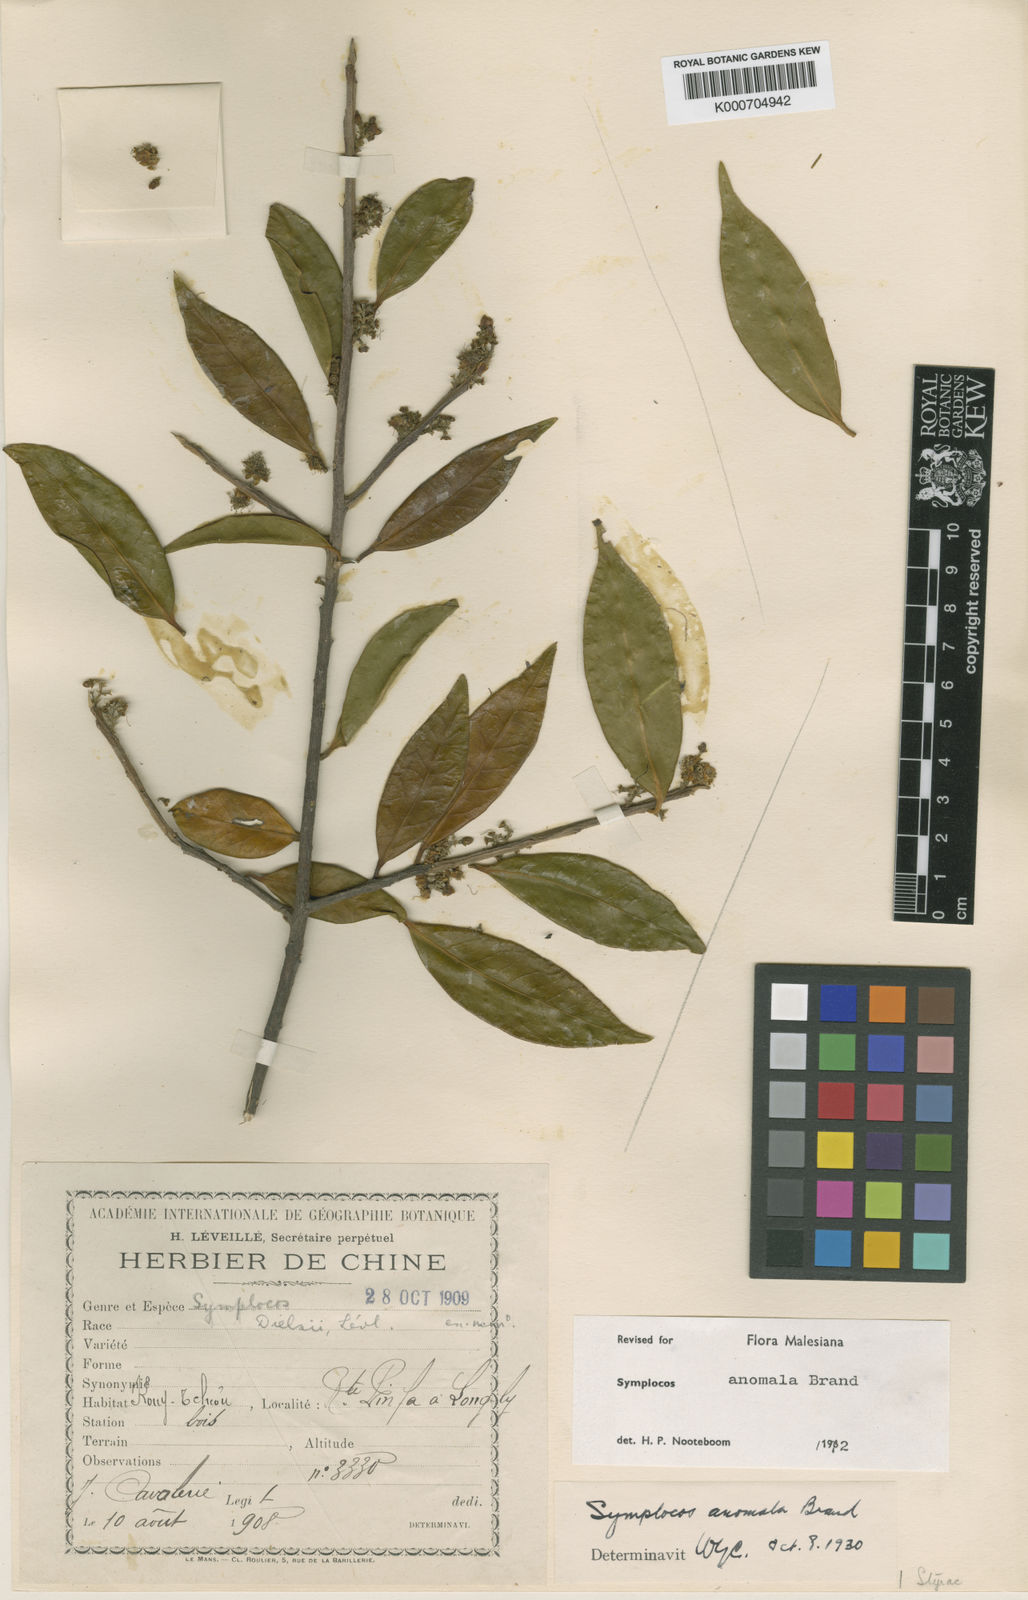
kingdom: Plantae
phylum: Tracheophyta
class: Magnoliopsida
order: Ericales
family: Symplocaceae
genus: Symplocos
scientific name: Symplocos anomala
